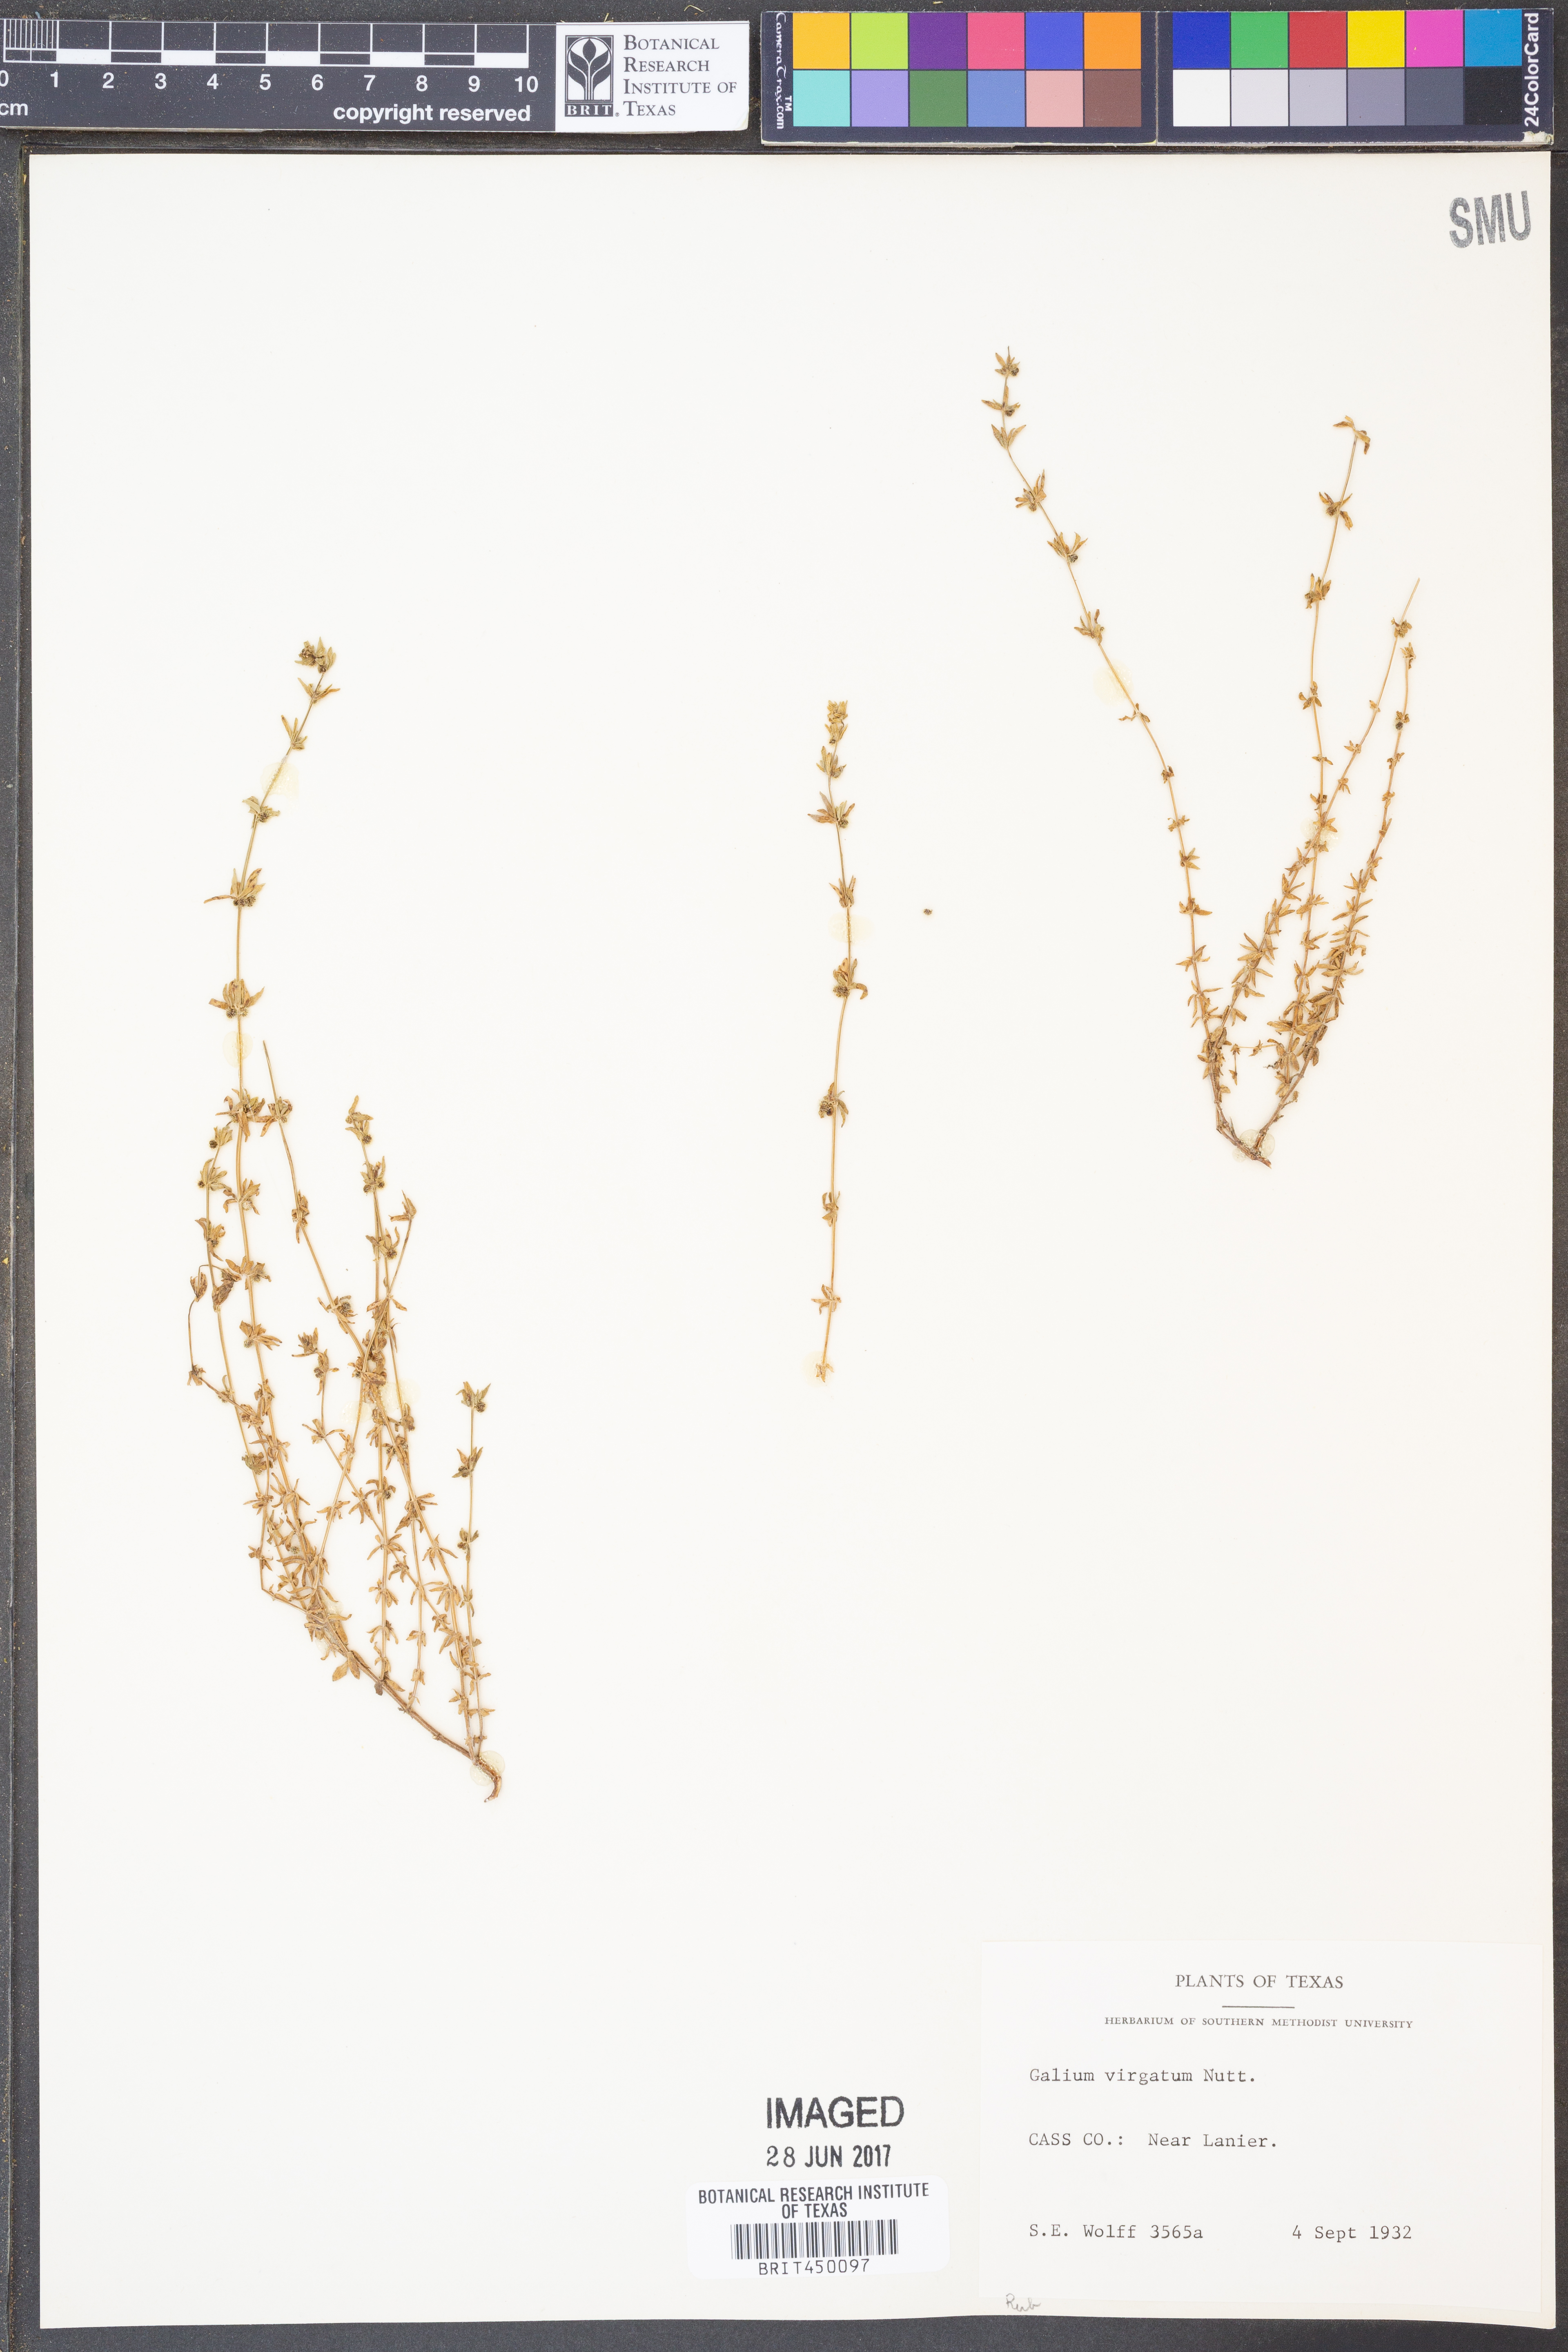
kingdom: Plantae
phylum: Tracheophyta
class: Magnoliopsida
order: Gentianales
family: Rubiaceae
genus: Galium
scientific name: Galium virgatum
